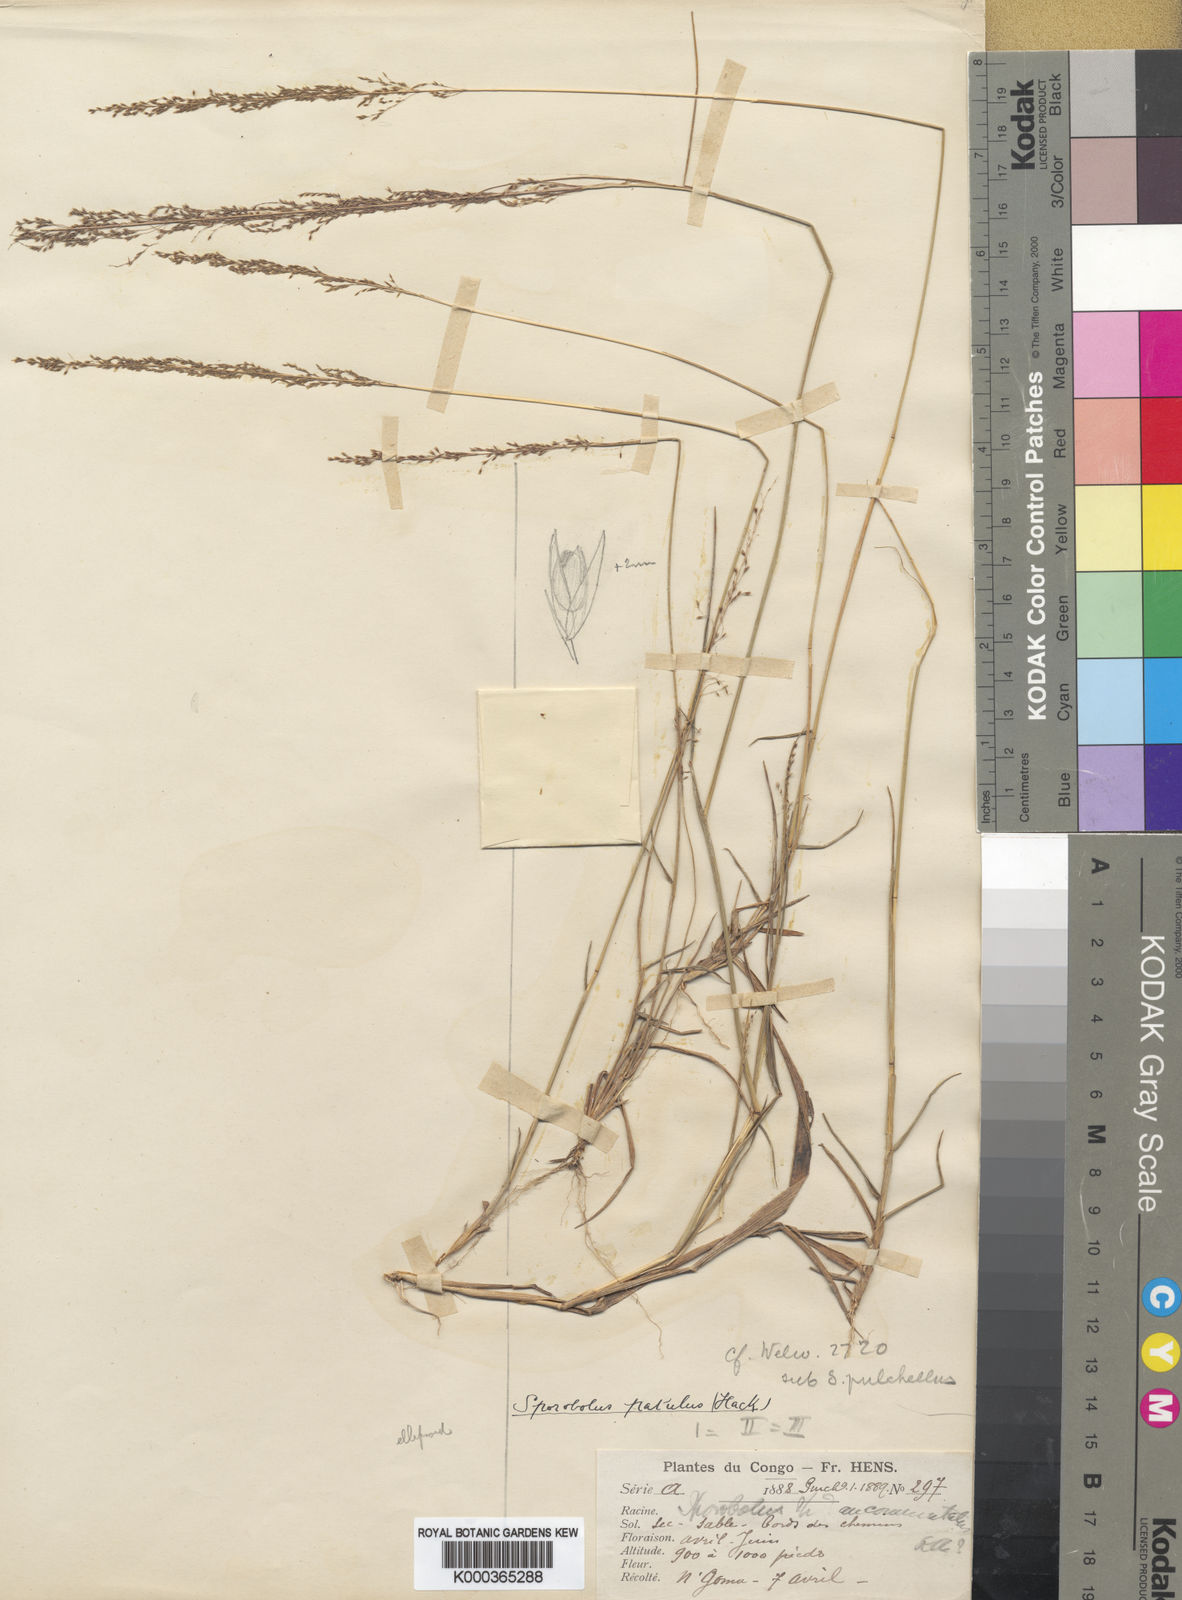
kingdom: Plantae
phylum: Tracheophyta
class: Liliopsida
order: Poales
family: Poaceae
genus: Sporobolus
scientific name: Sporobolus paniculatus
